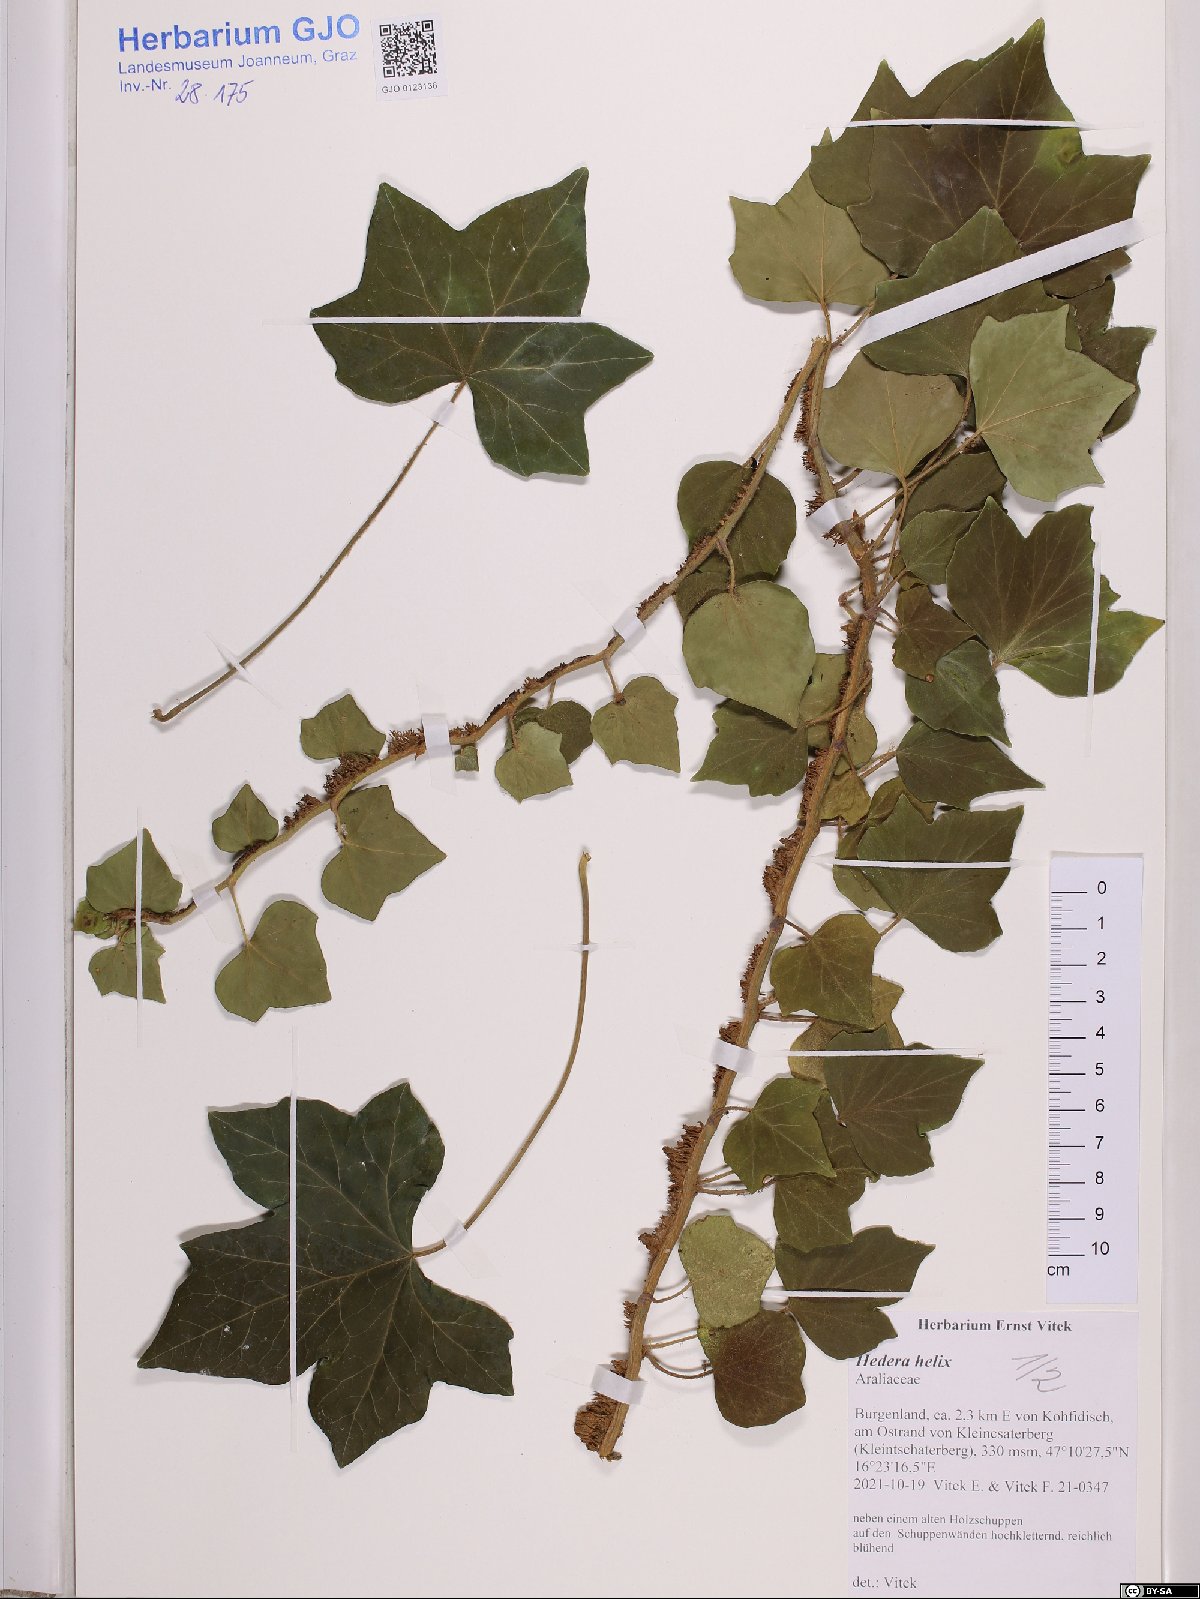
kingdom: Plantae
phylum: Tracheophyta
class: Magnoliopsida
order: Apiales
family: Araliaceae
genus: Hedera
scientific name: Hedera helix
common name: Ivy
